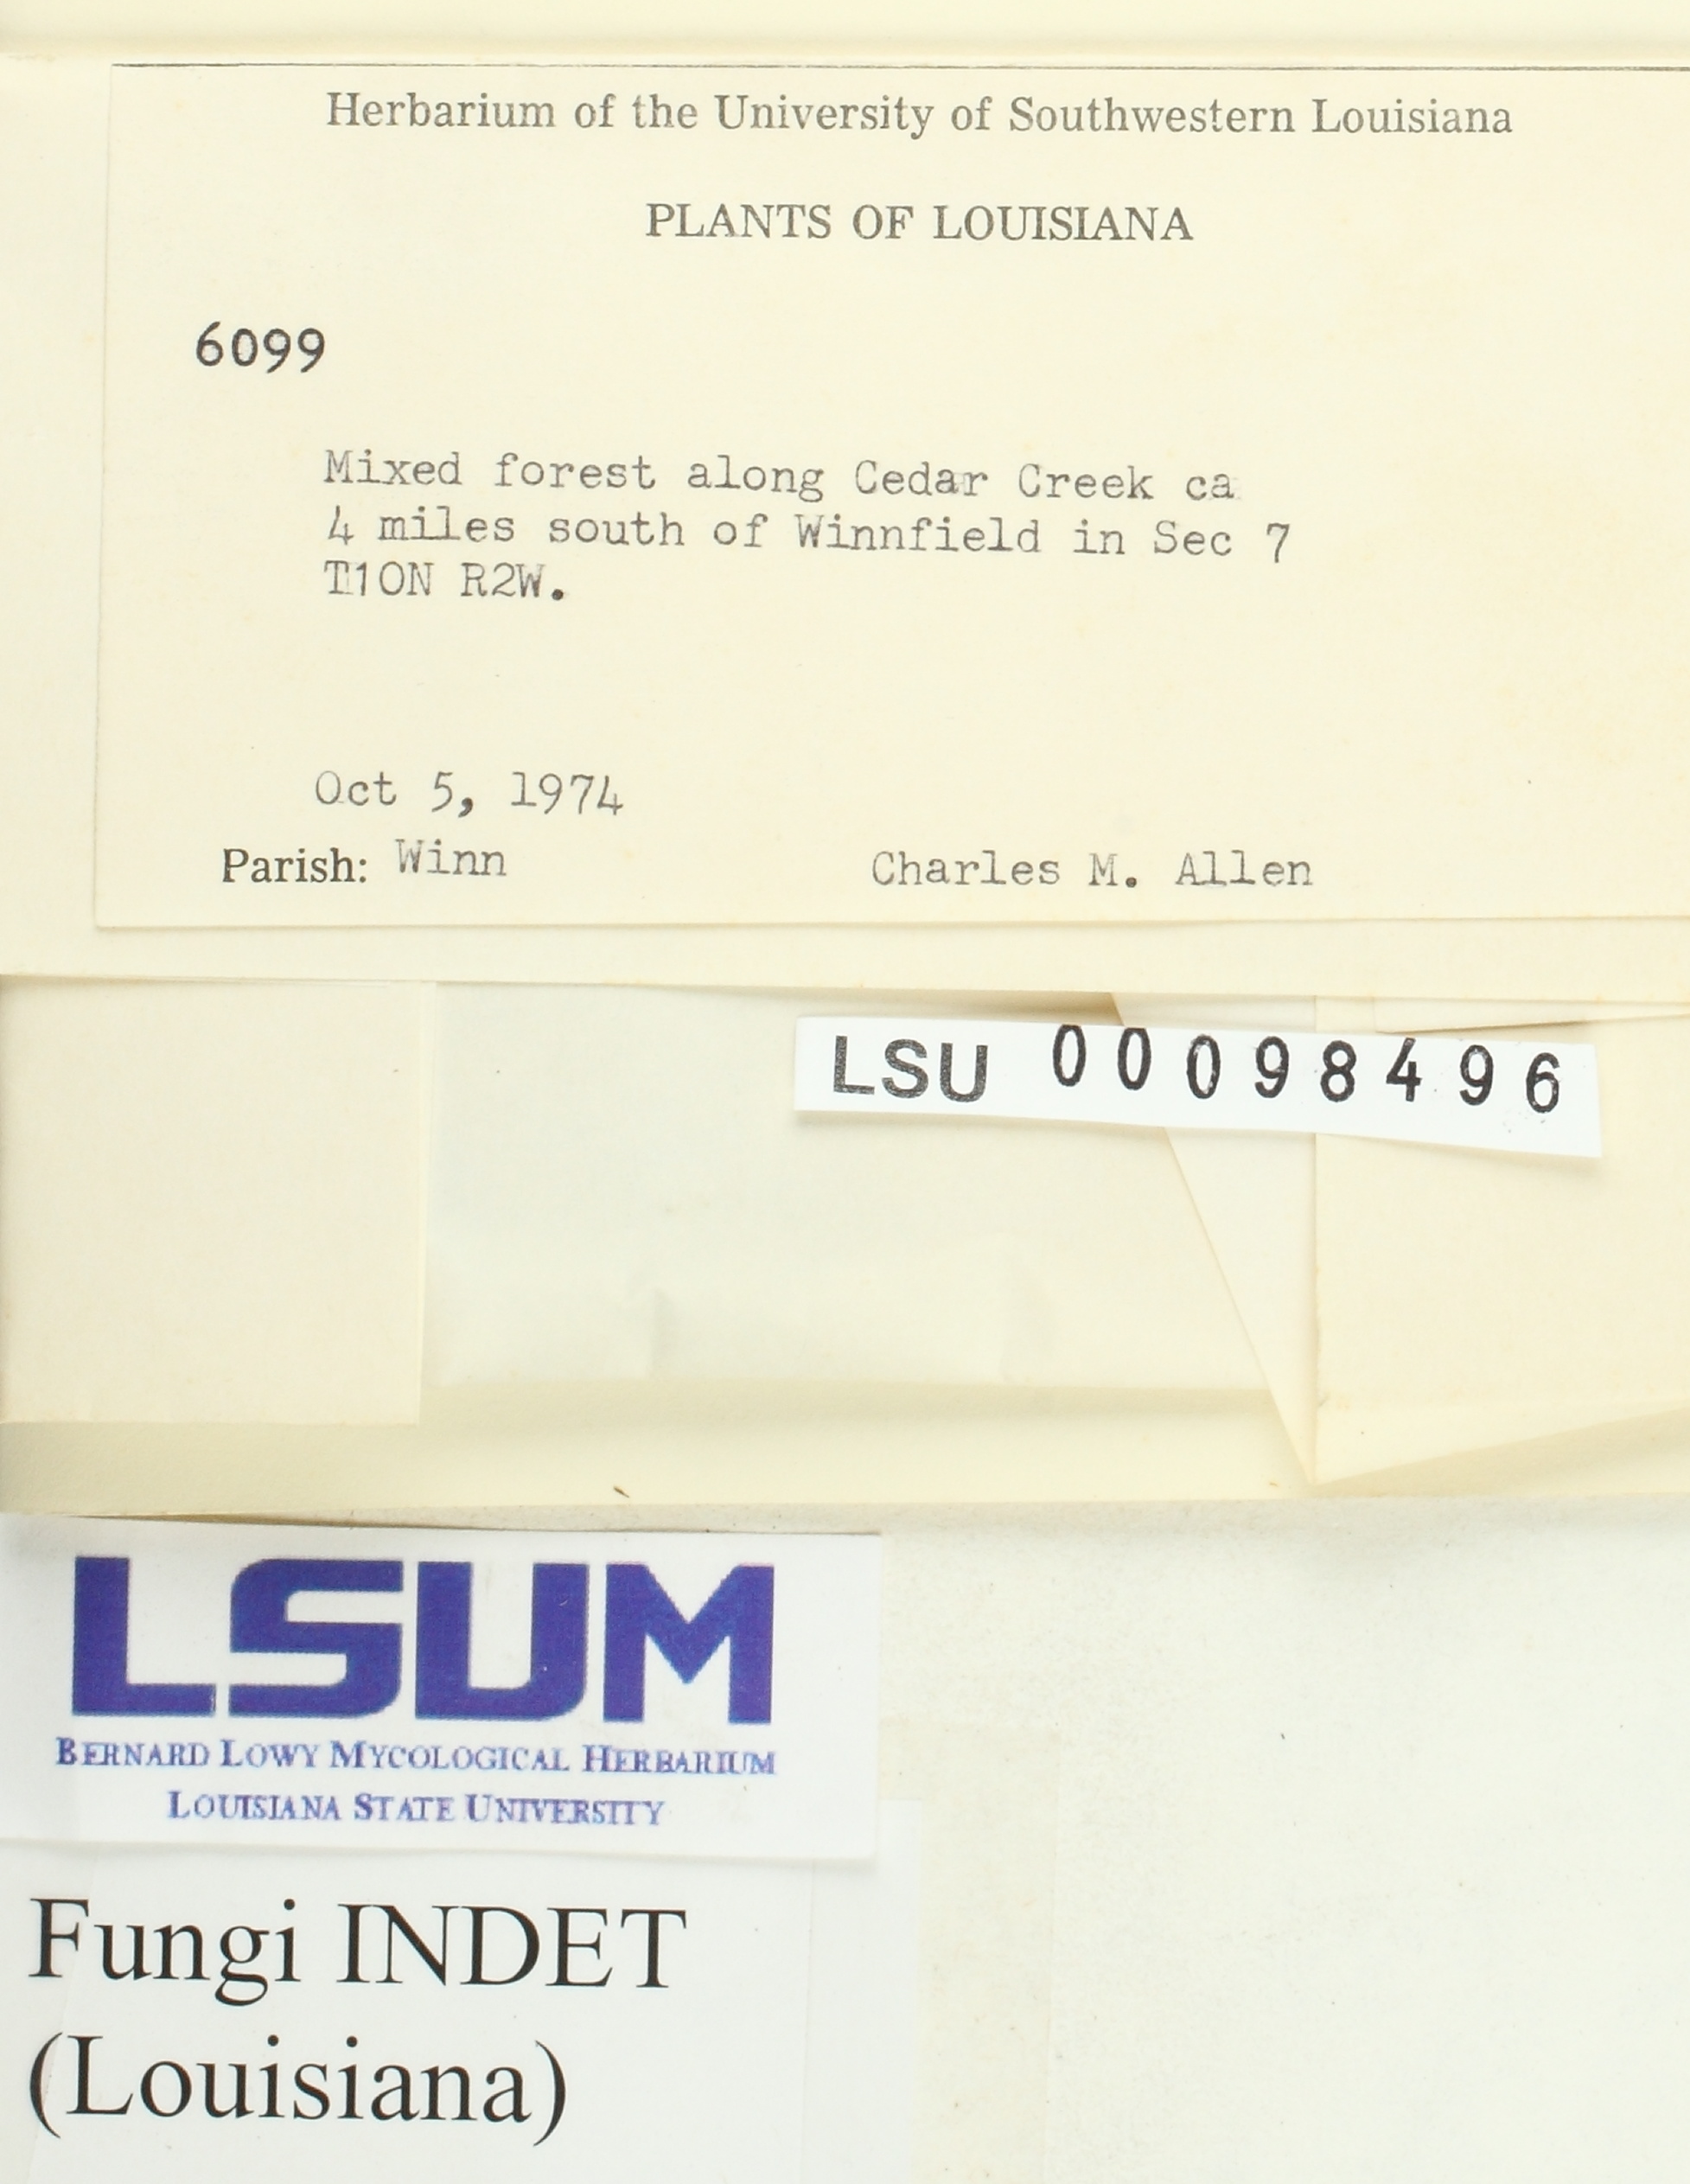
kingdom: Fungi
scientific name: Fungi
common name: Fungi
